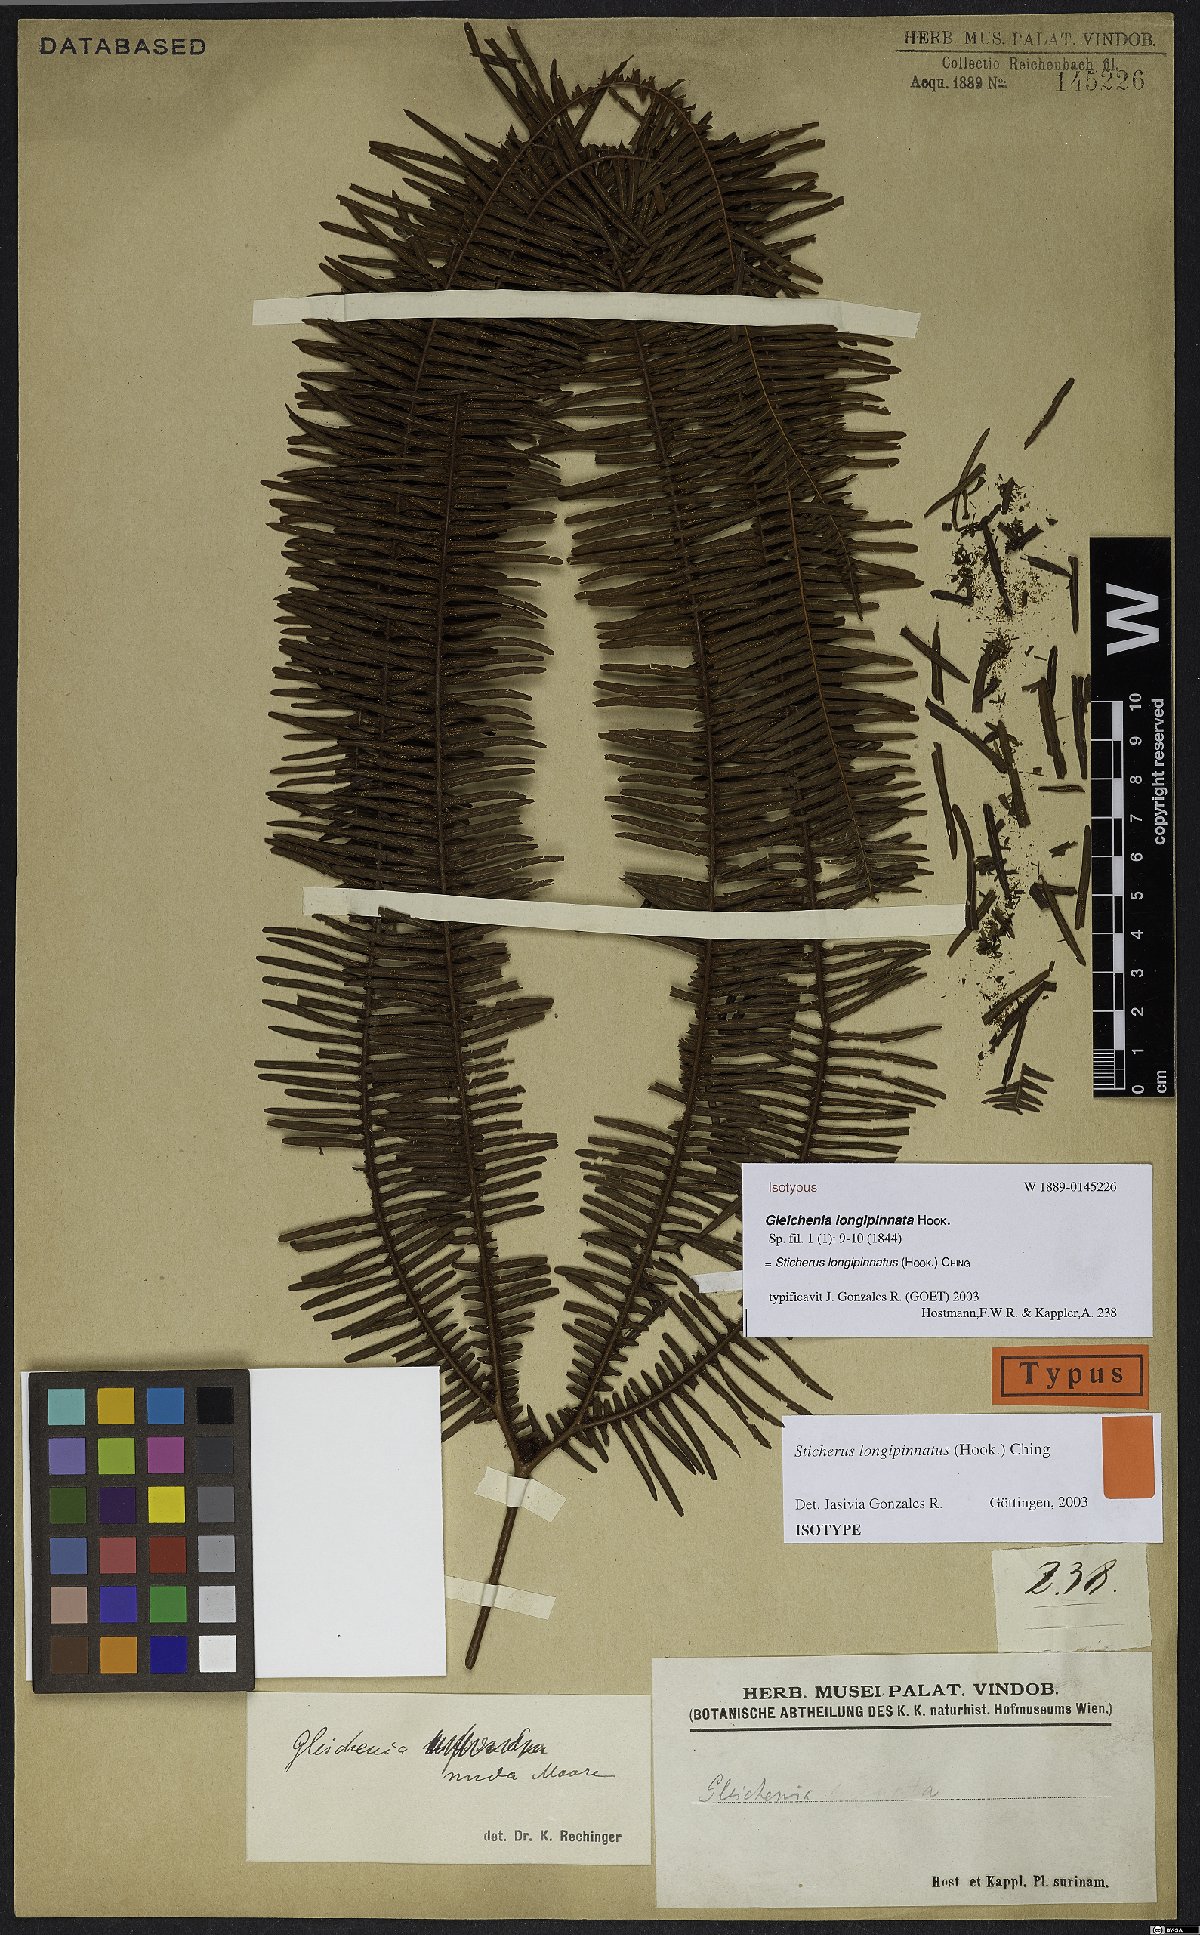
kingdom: Plantae
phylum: Tracheophyta
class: Polypodiopsida
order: Gleicheniales
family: Gleicheniaceae
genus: Sticherus
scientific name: Sticherus longipinnatus
